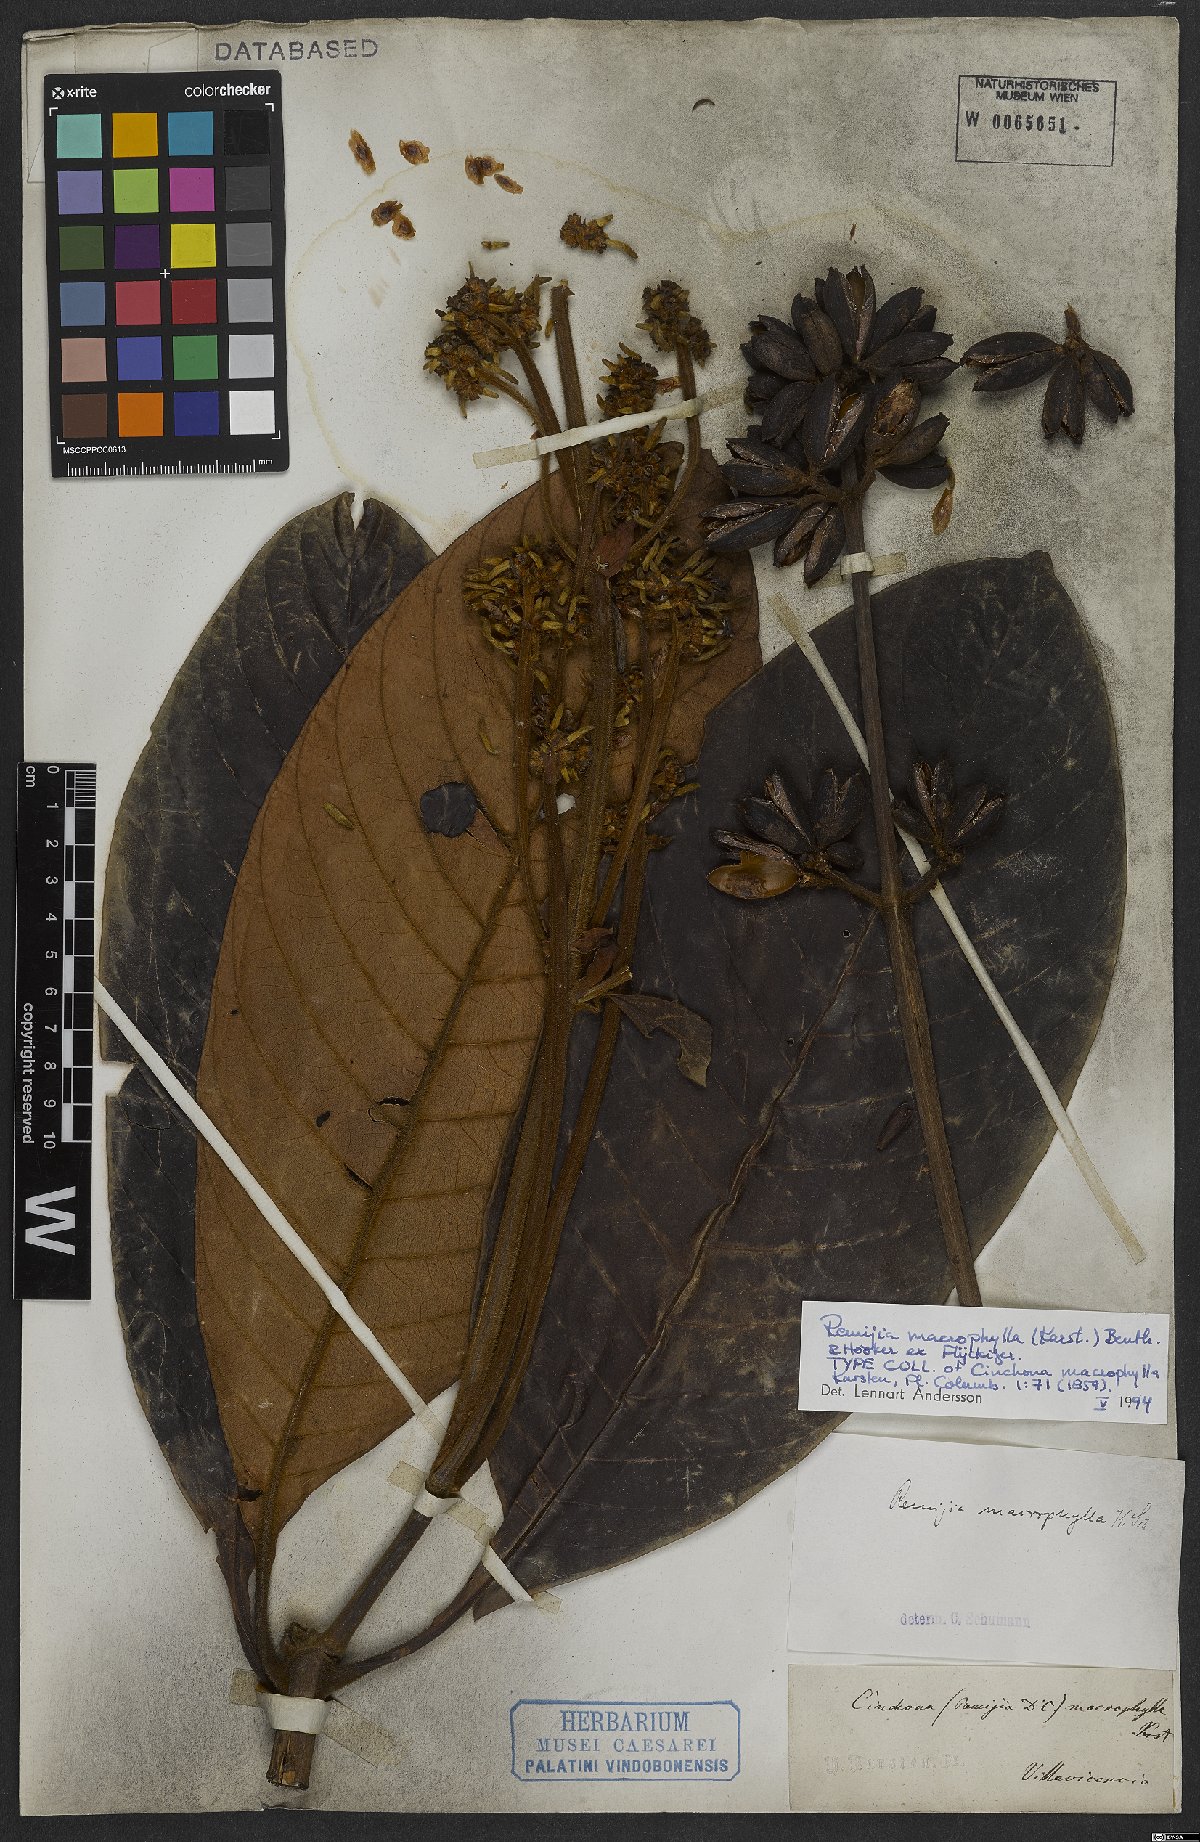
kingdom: Plantae
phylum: Tracheophyta
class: Magnoliopsida
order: Gentianales
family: Rubiaceae
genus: Remijia
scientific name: Remijia macrophylla
